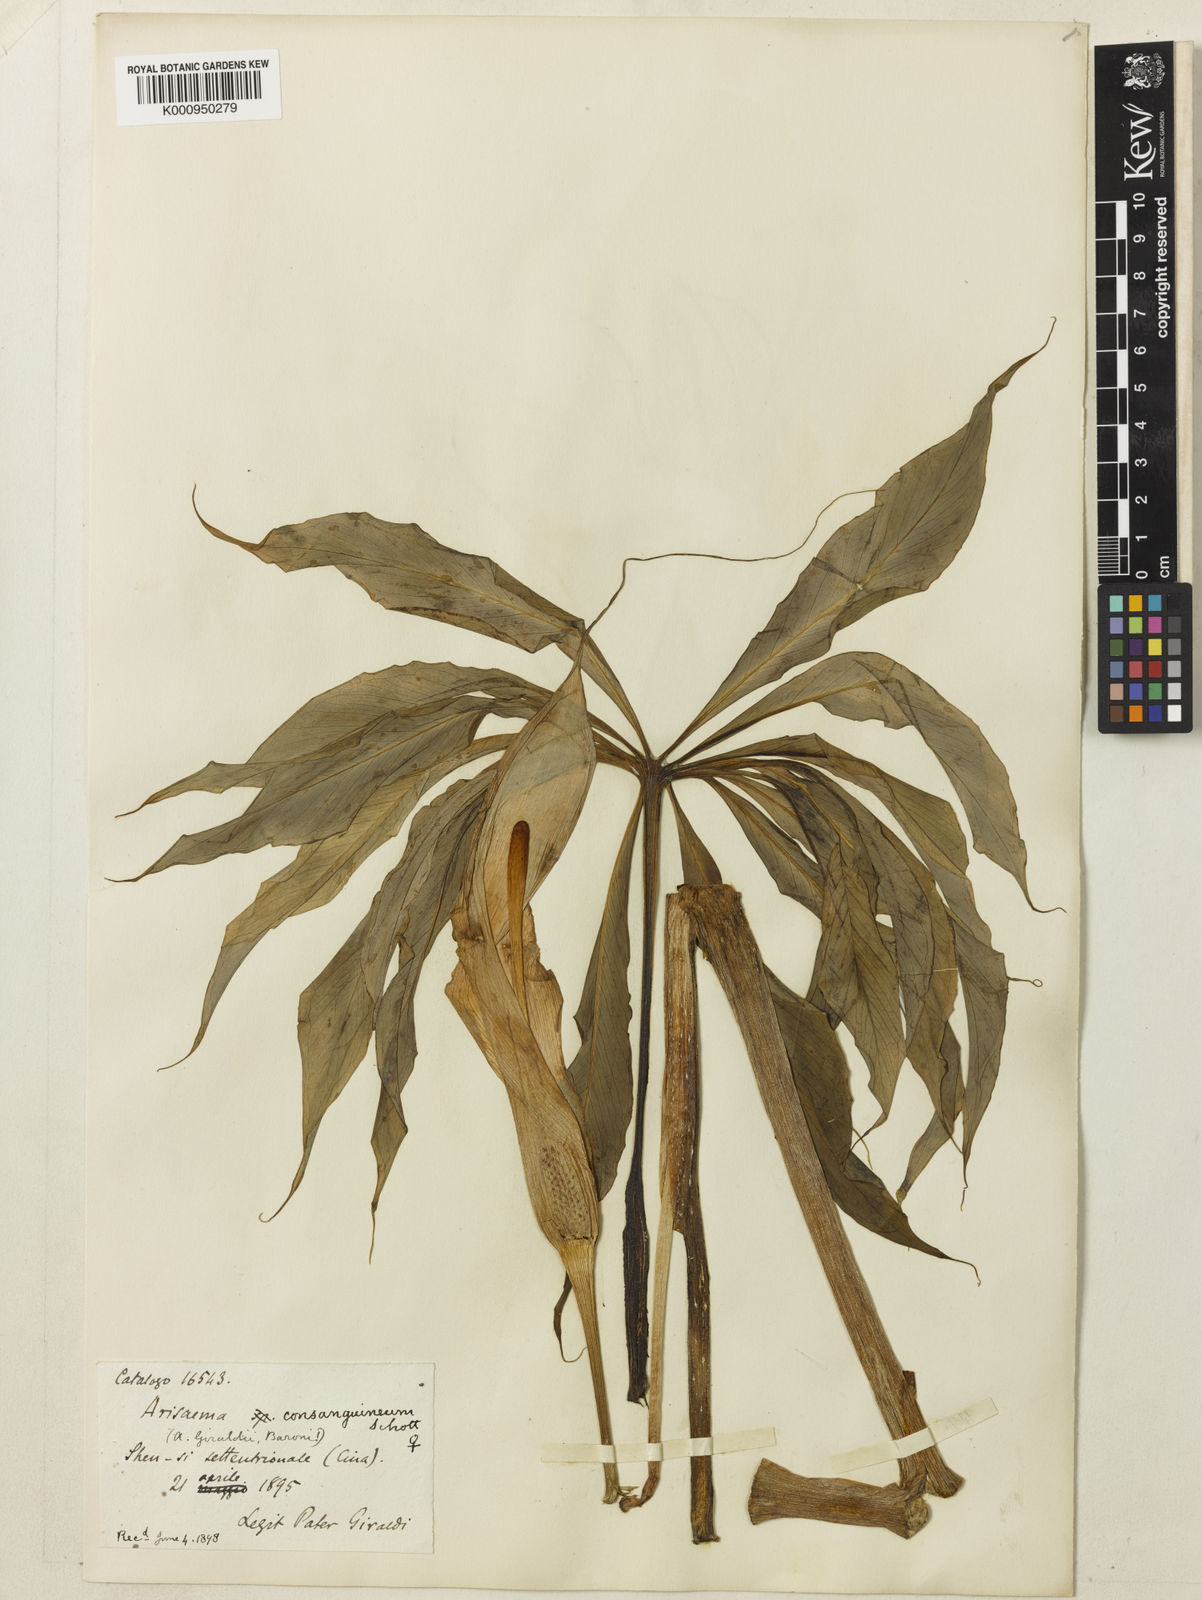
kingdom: Plantae
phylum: Tracheophyta
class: Liliopsida
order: Alismatales
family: Araceae
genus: Arisaema
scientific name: Arisaema erubescens
